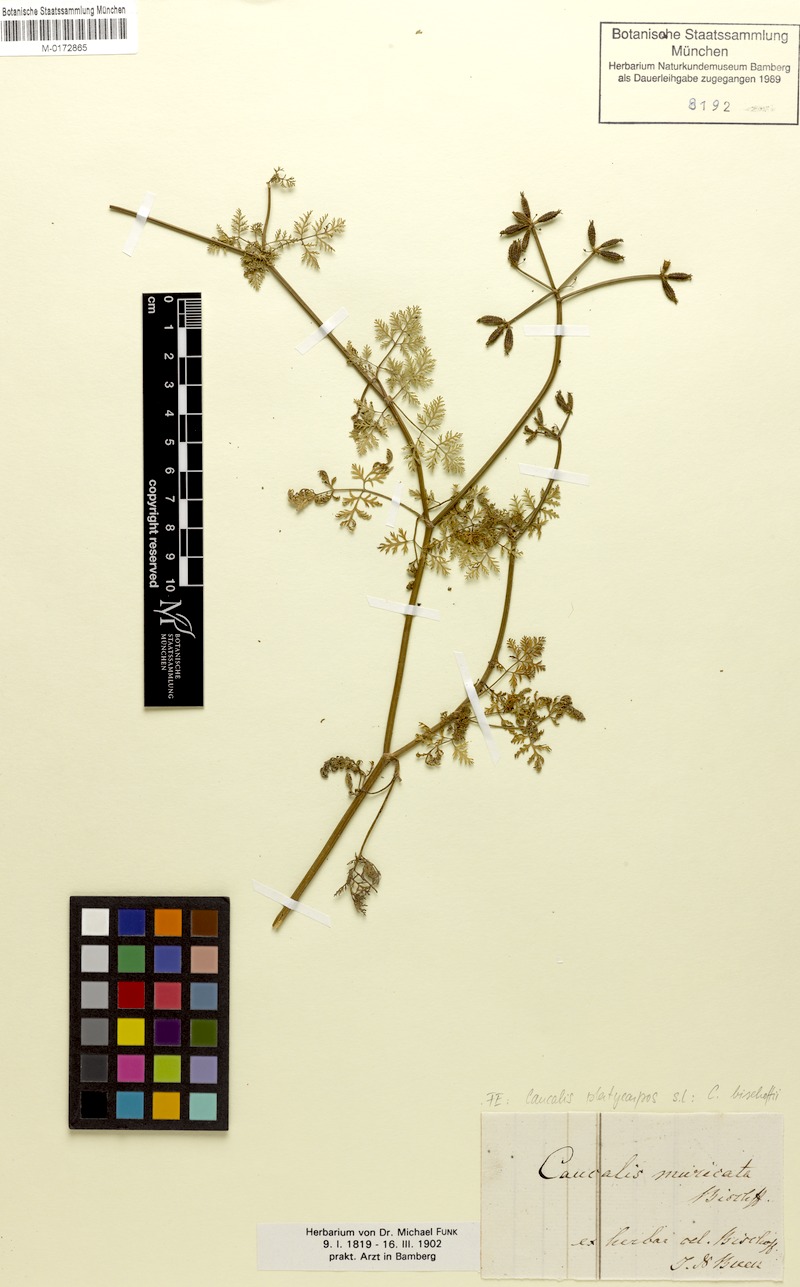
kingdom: Plantae
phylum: Tracheophyta
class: Magnoliopsida
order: Apiales
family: Apiaceae
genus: Caucalis
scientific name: Caucalis platycarpos
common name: Small bur-parsley
